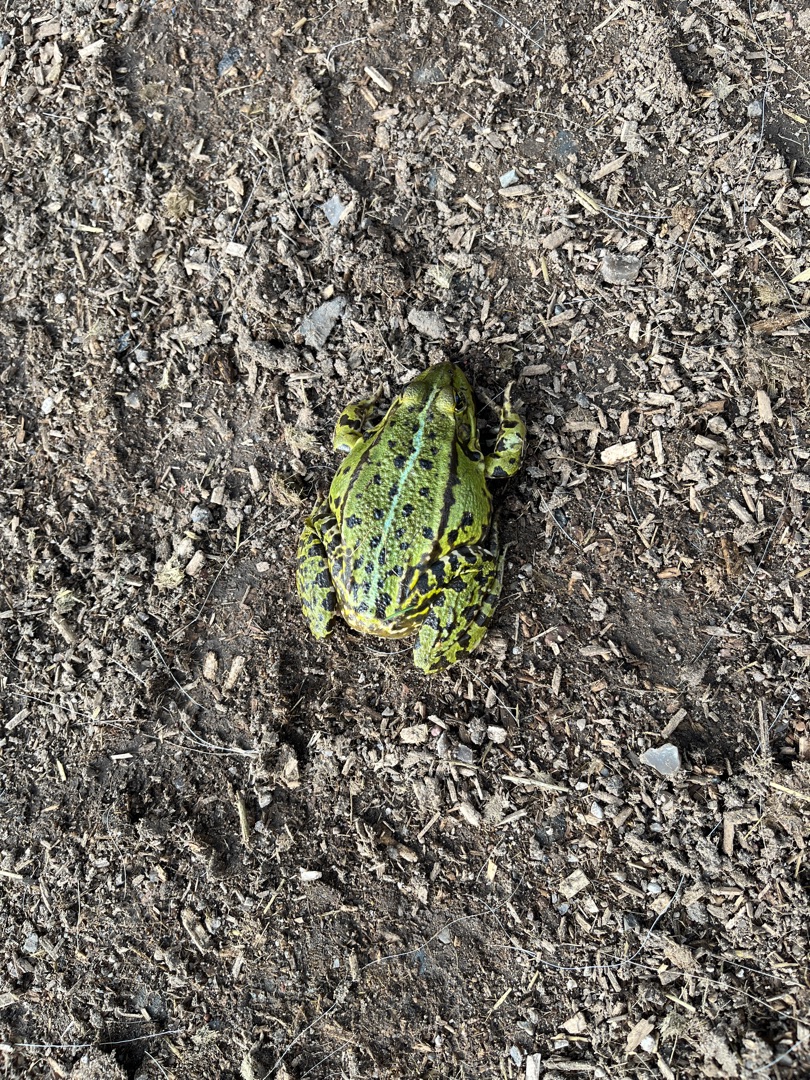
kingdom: Animalia
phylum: Chordata
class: Amphibia
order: Anura
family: Ranidae
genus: Pelophylax
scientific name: Pelophylax lessonae
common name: Grøn frø
